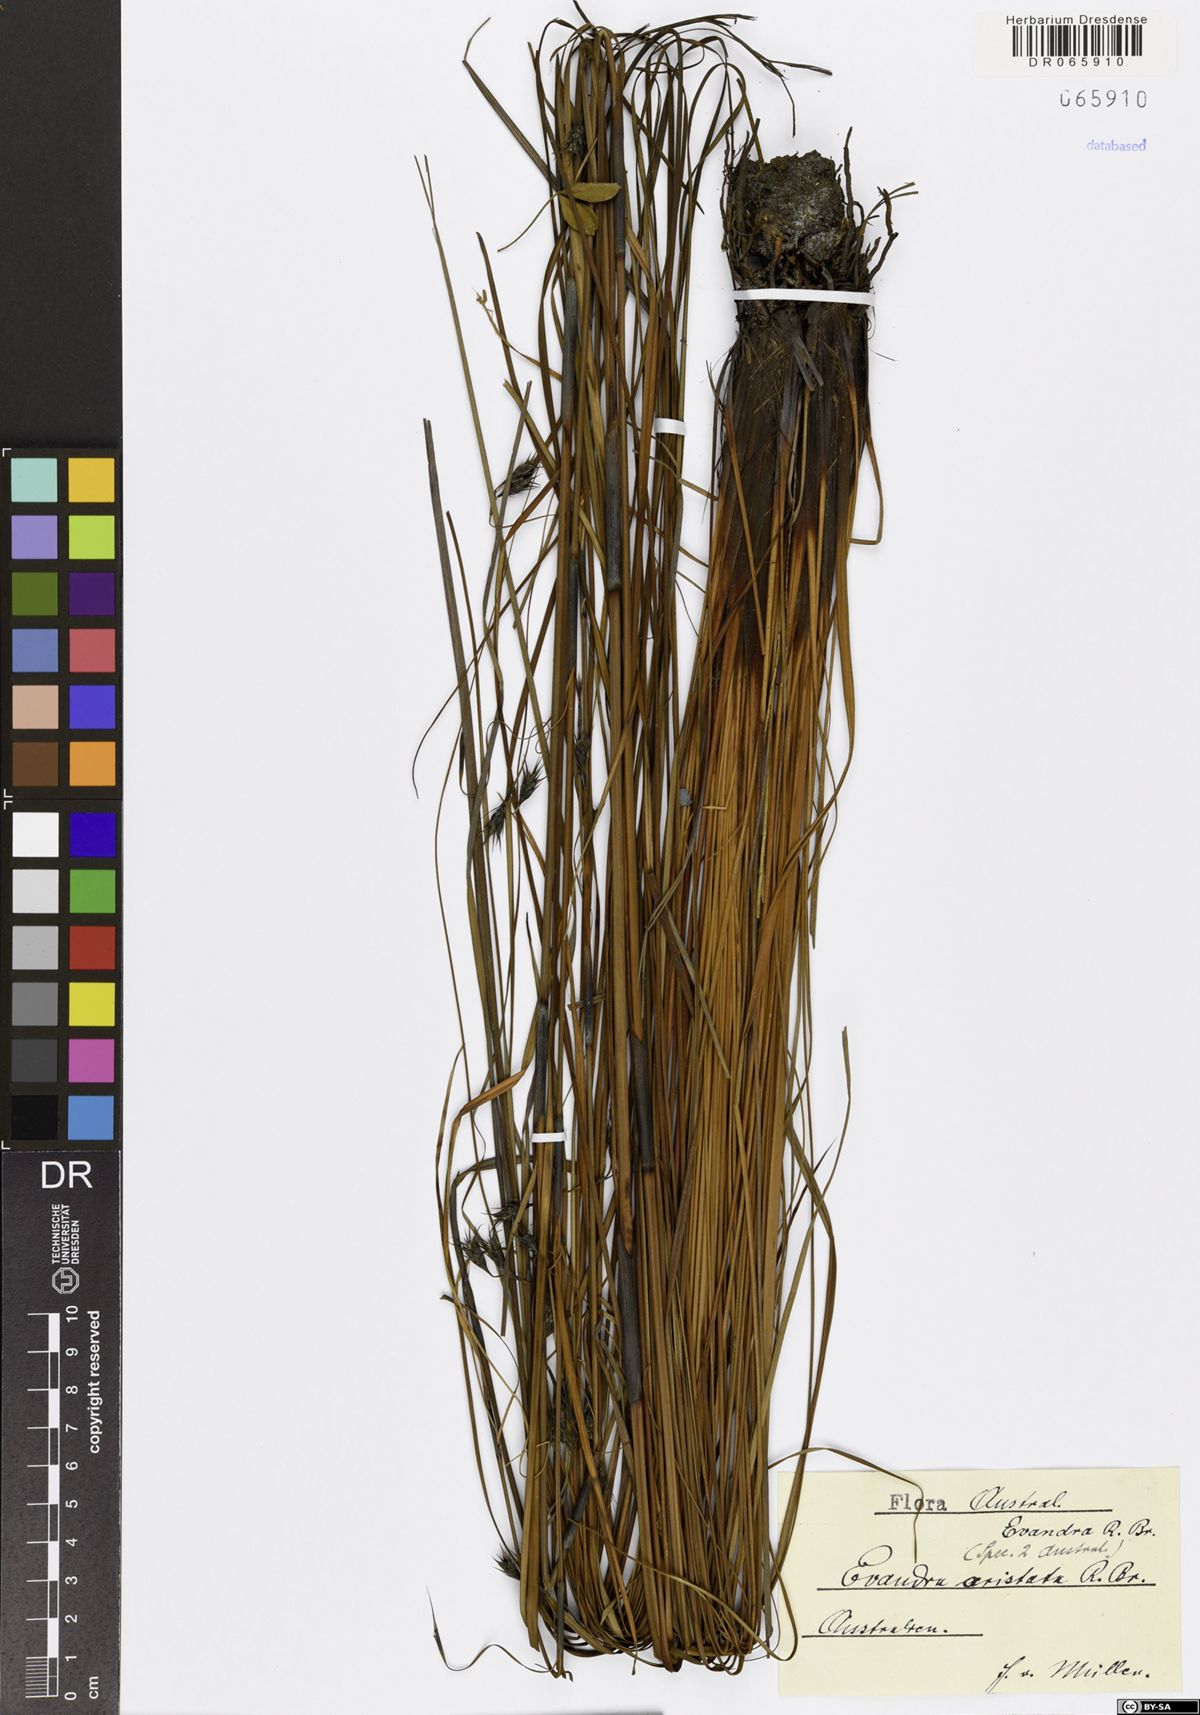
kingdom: Plantae
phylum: Tracheophyta
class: Liliopsida
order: Poales
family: Cyperaceae
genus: Evandra
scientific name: Evandra aristata
